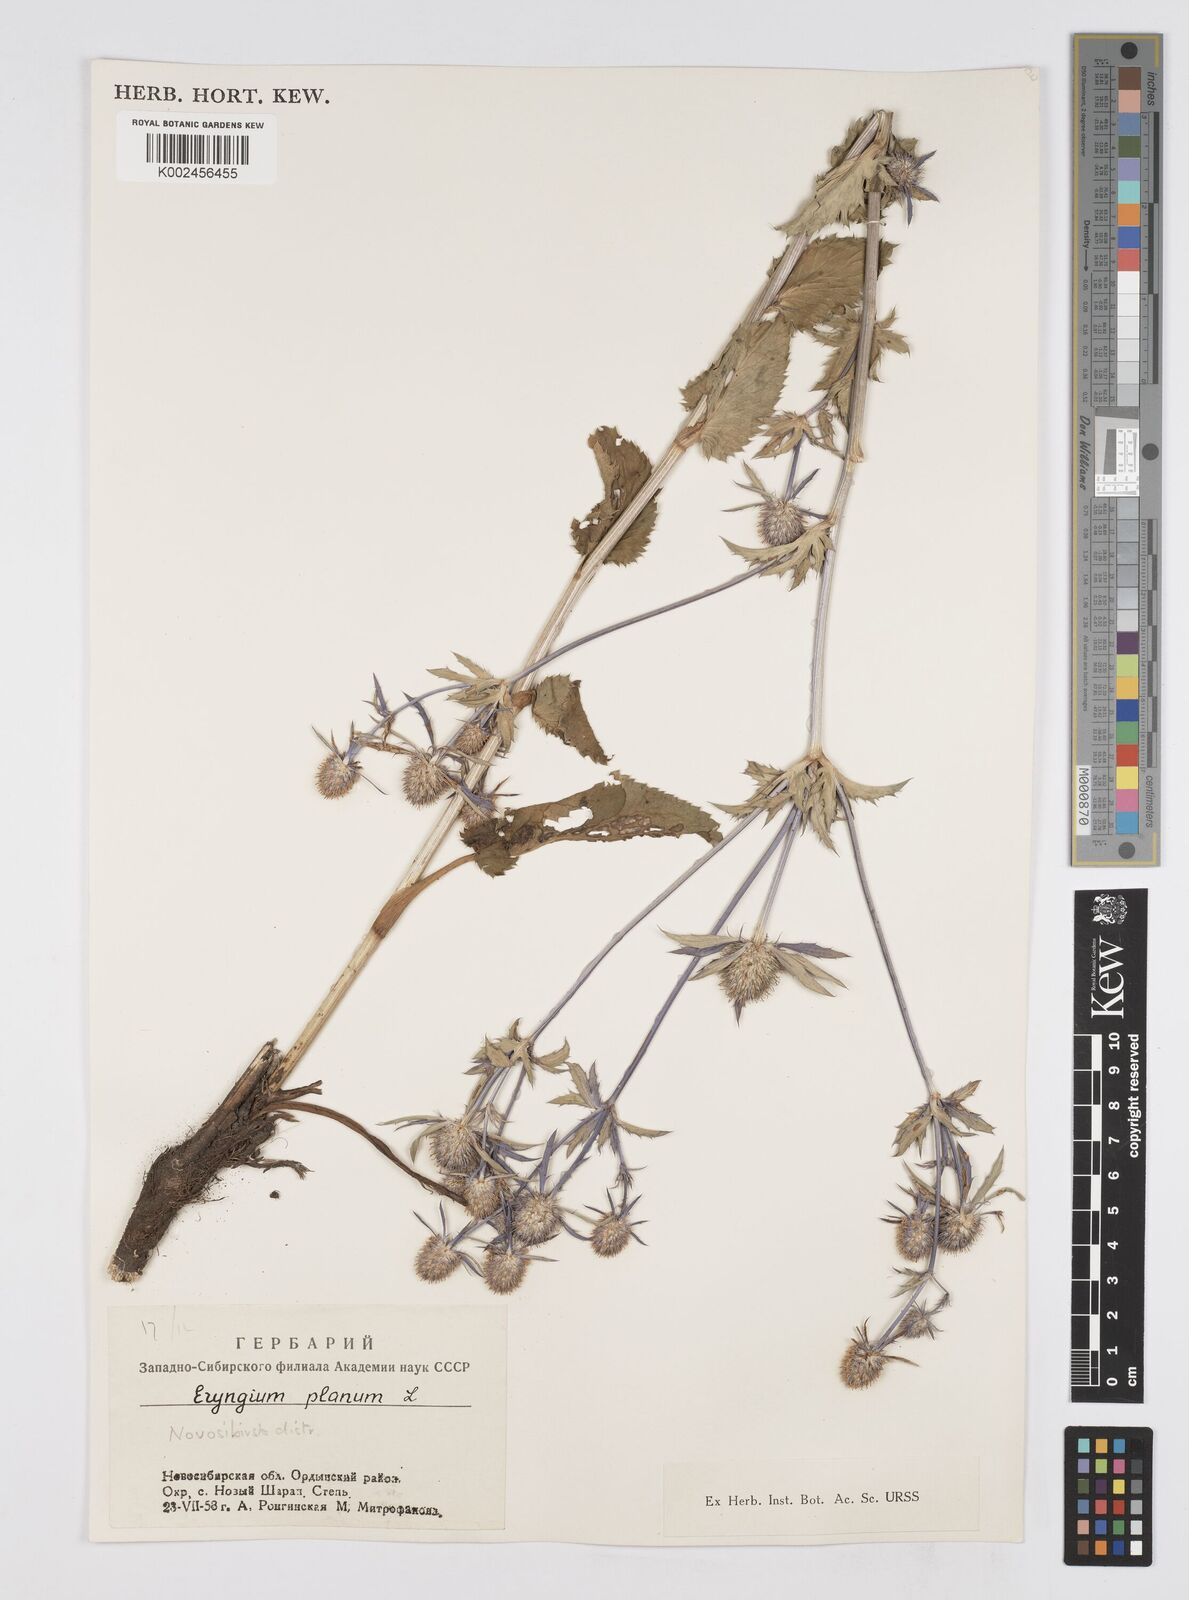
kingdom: Plantae
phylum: Tracheophyta
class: Magnoliopsida
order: Apiales
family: Apiaceae
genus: Eryngium
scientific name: Eryngium planum
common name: Blue eryngo
